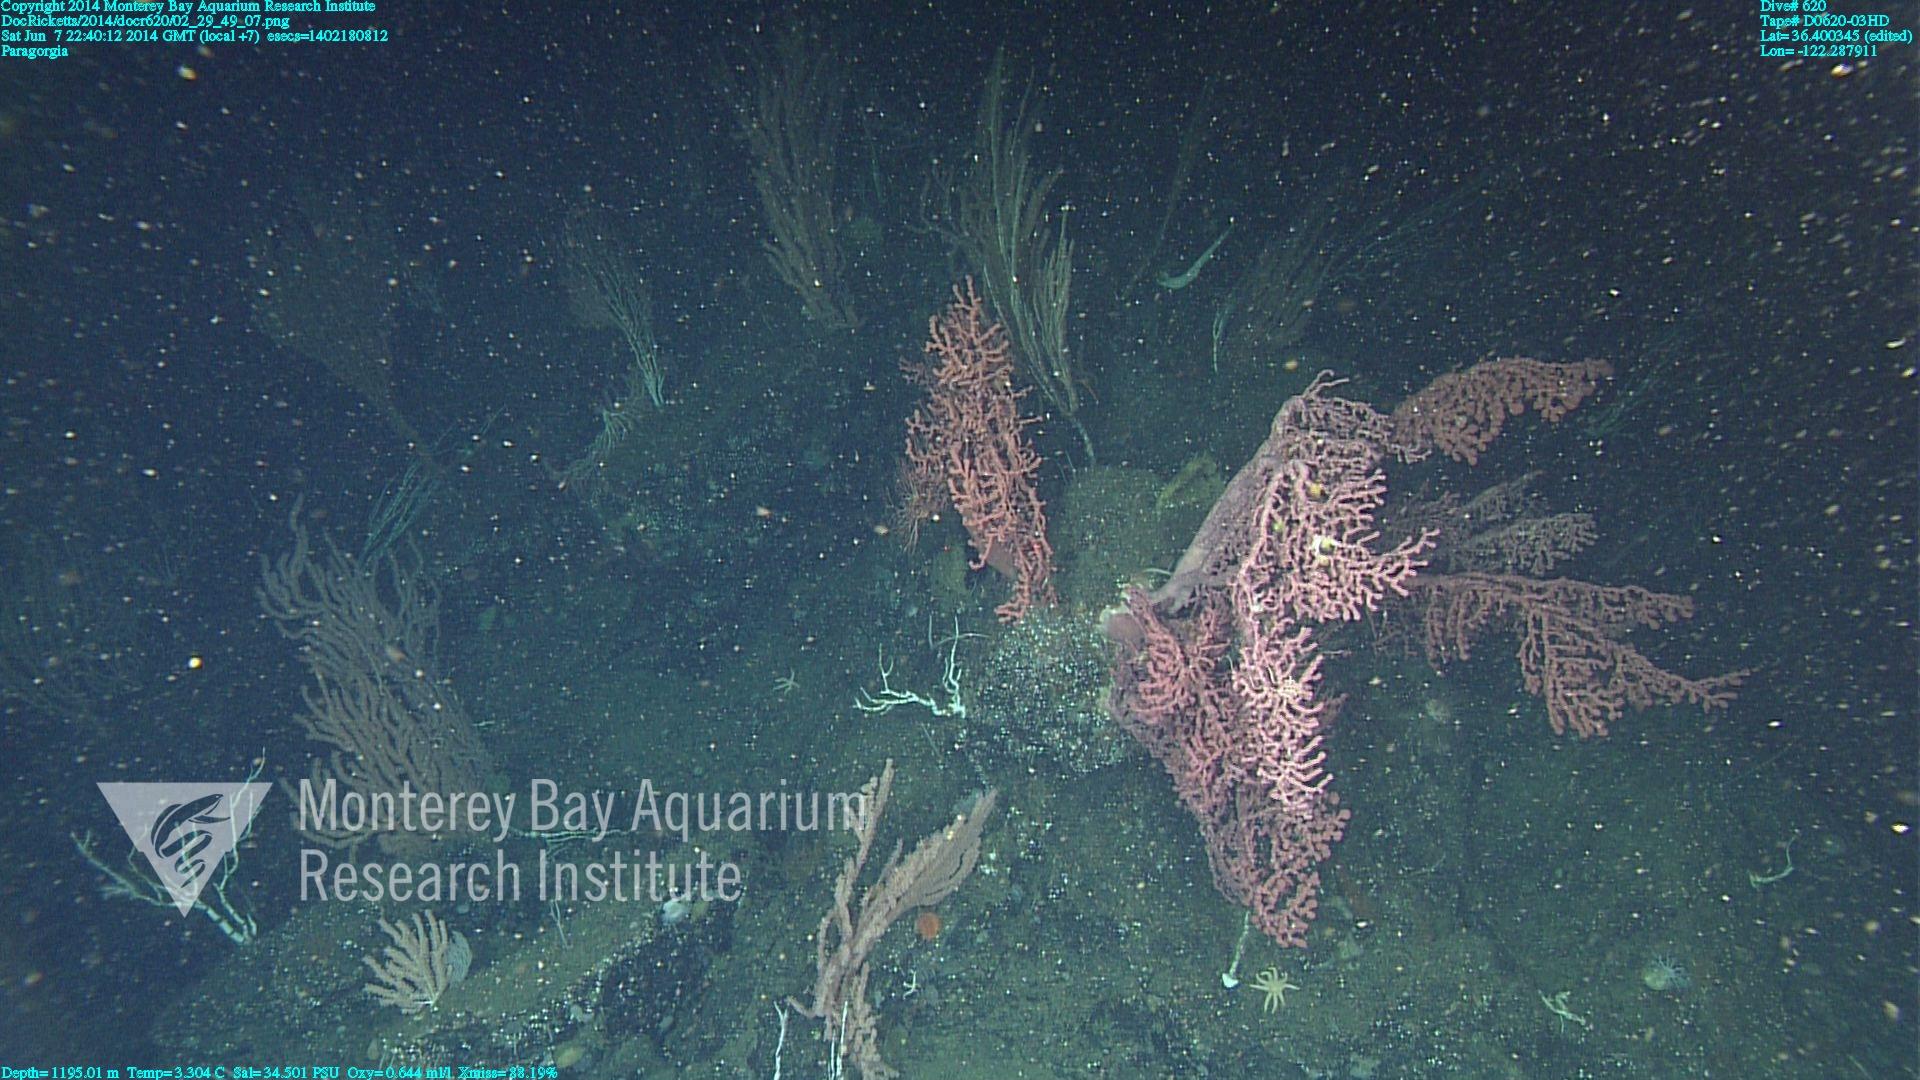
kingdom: Animalia
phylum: Cnidaria
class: Anthozoa
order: Scleralcyonacea
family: Coralliidae
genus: Paragorgia
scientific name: Paragorgia arborea
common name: Bubble gum coral
